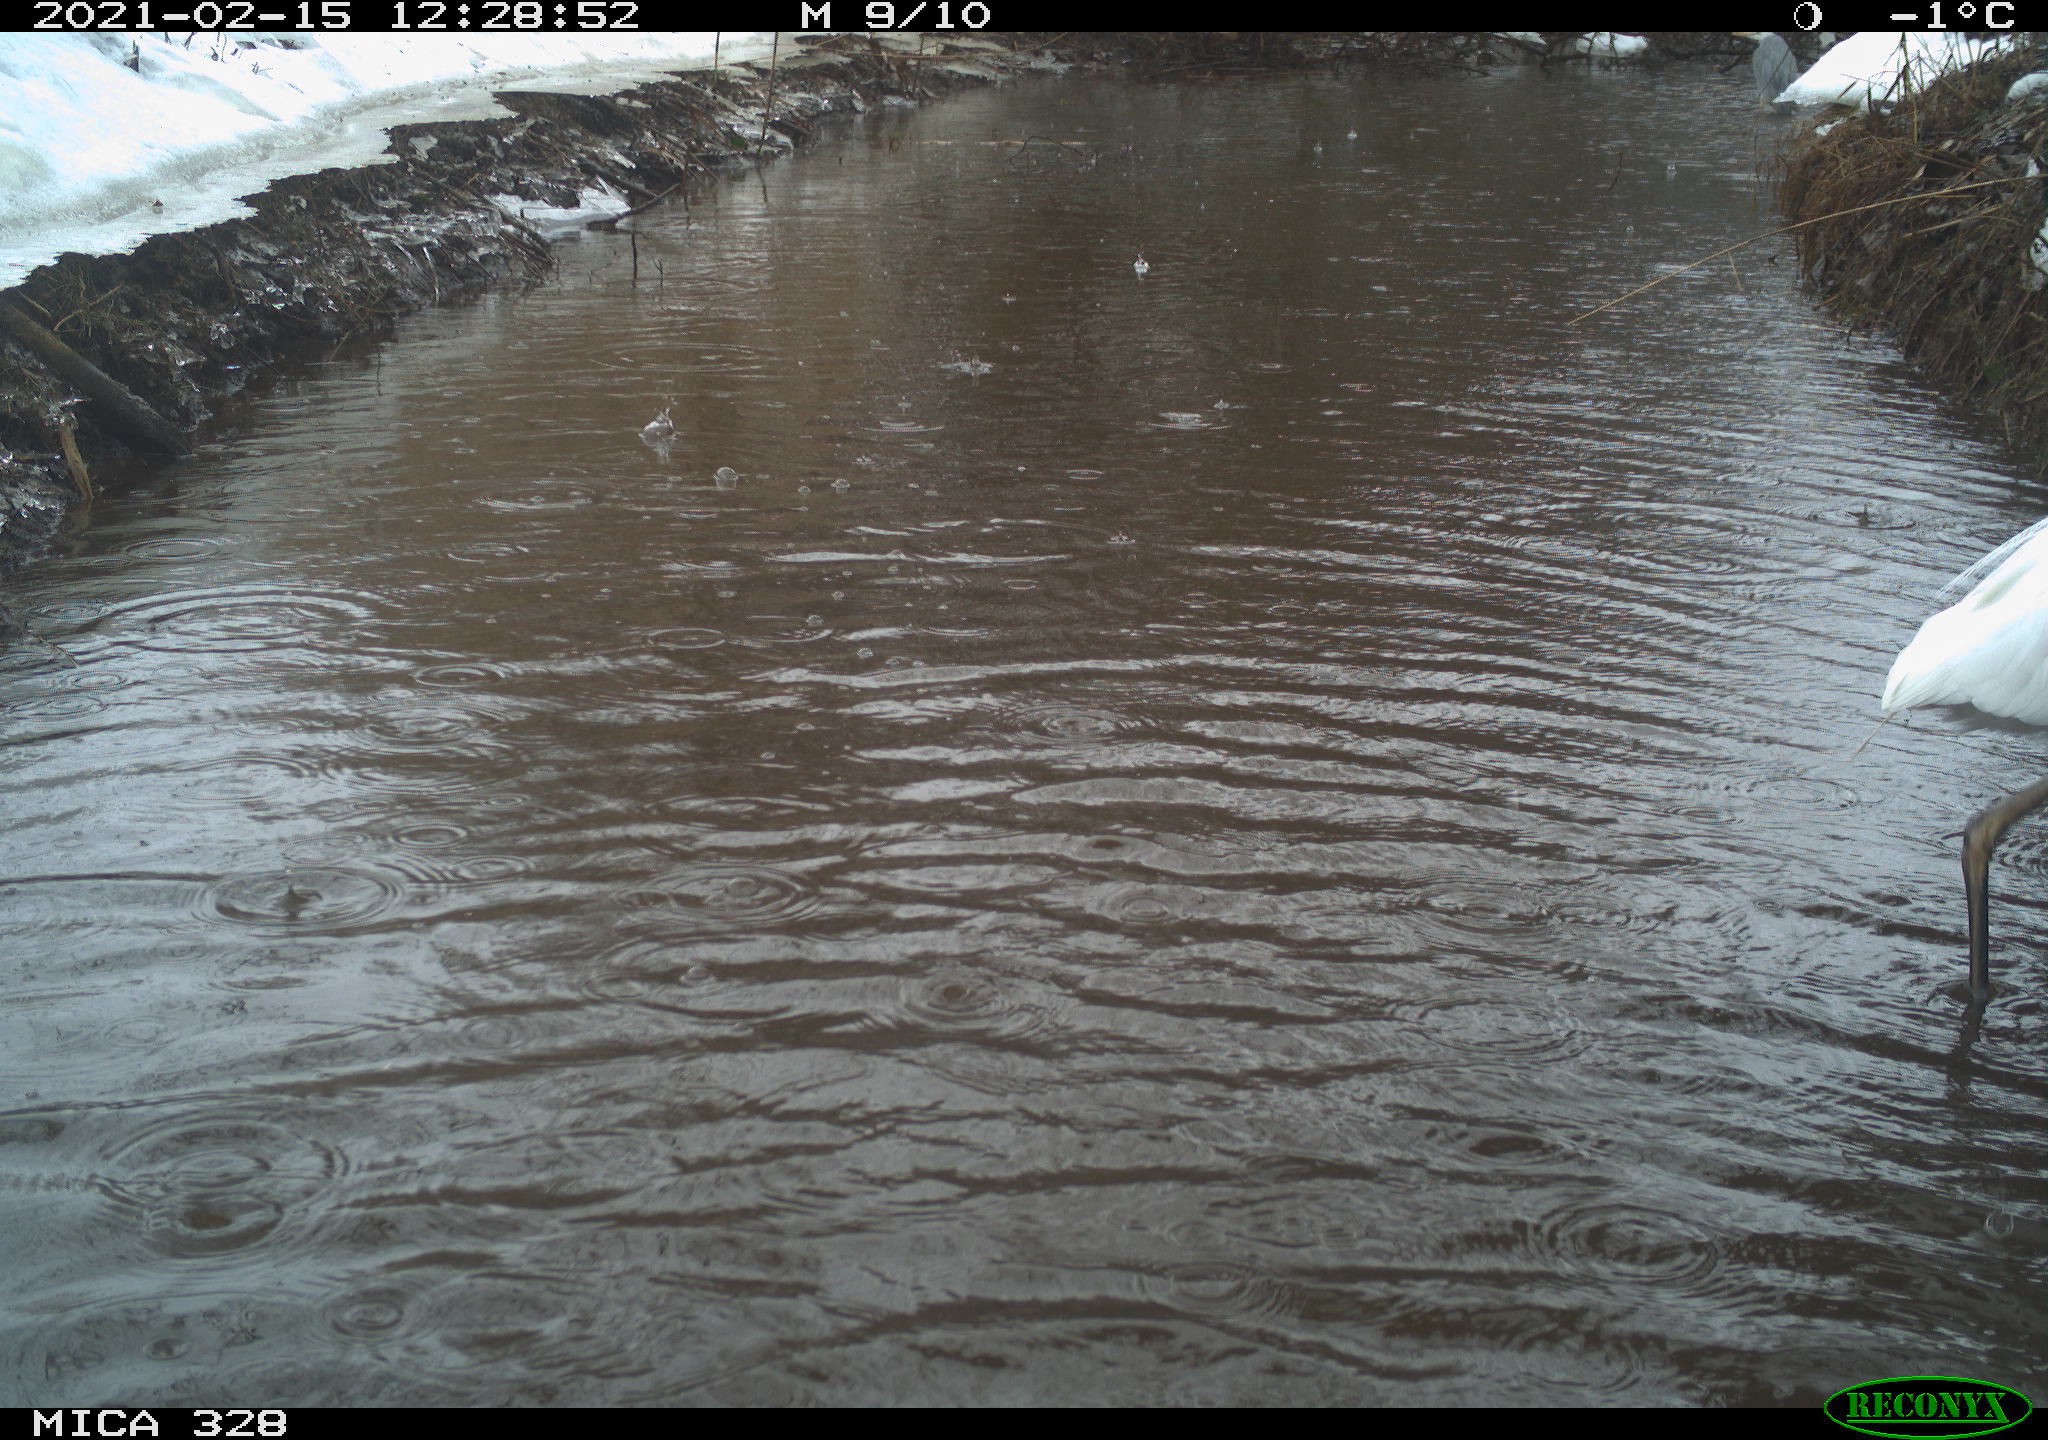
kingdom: Animalia
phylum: Chordata
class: Aves
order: Pelecaniformes
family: Ardeidae
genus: Ardea
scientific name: Ardea cinerea
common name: Grey heron
